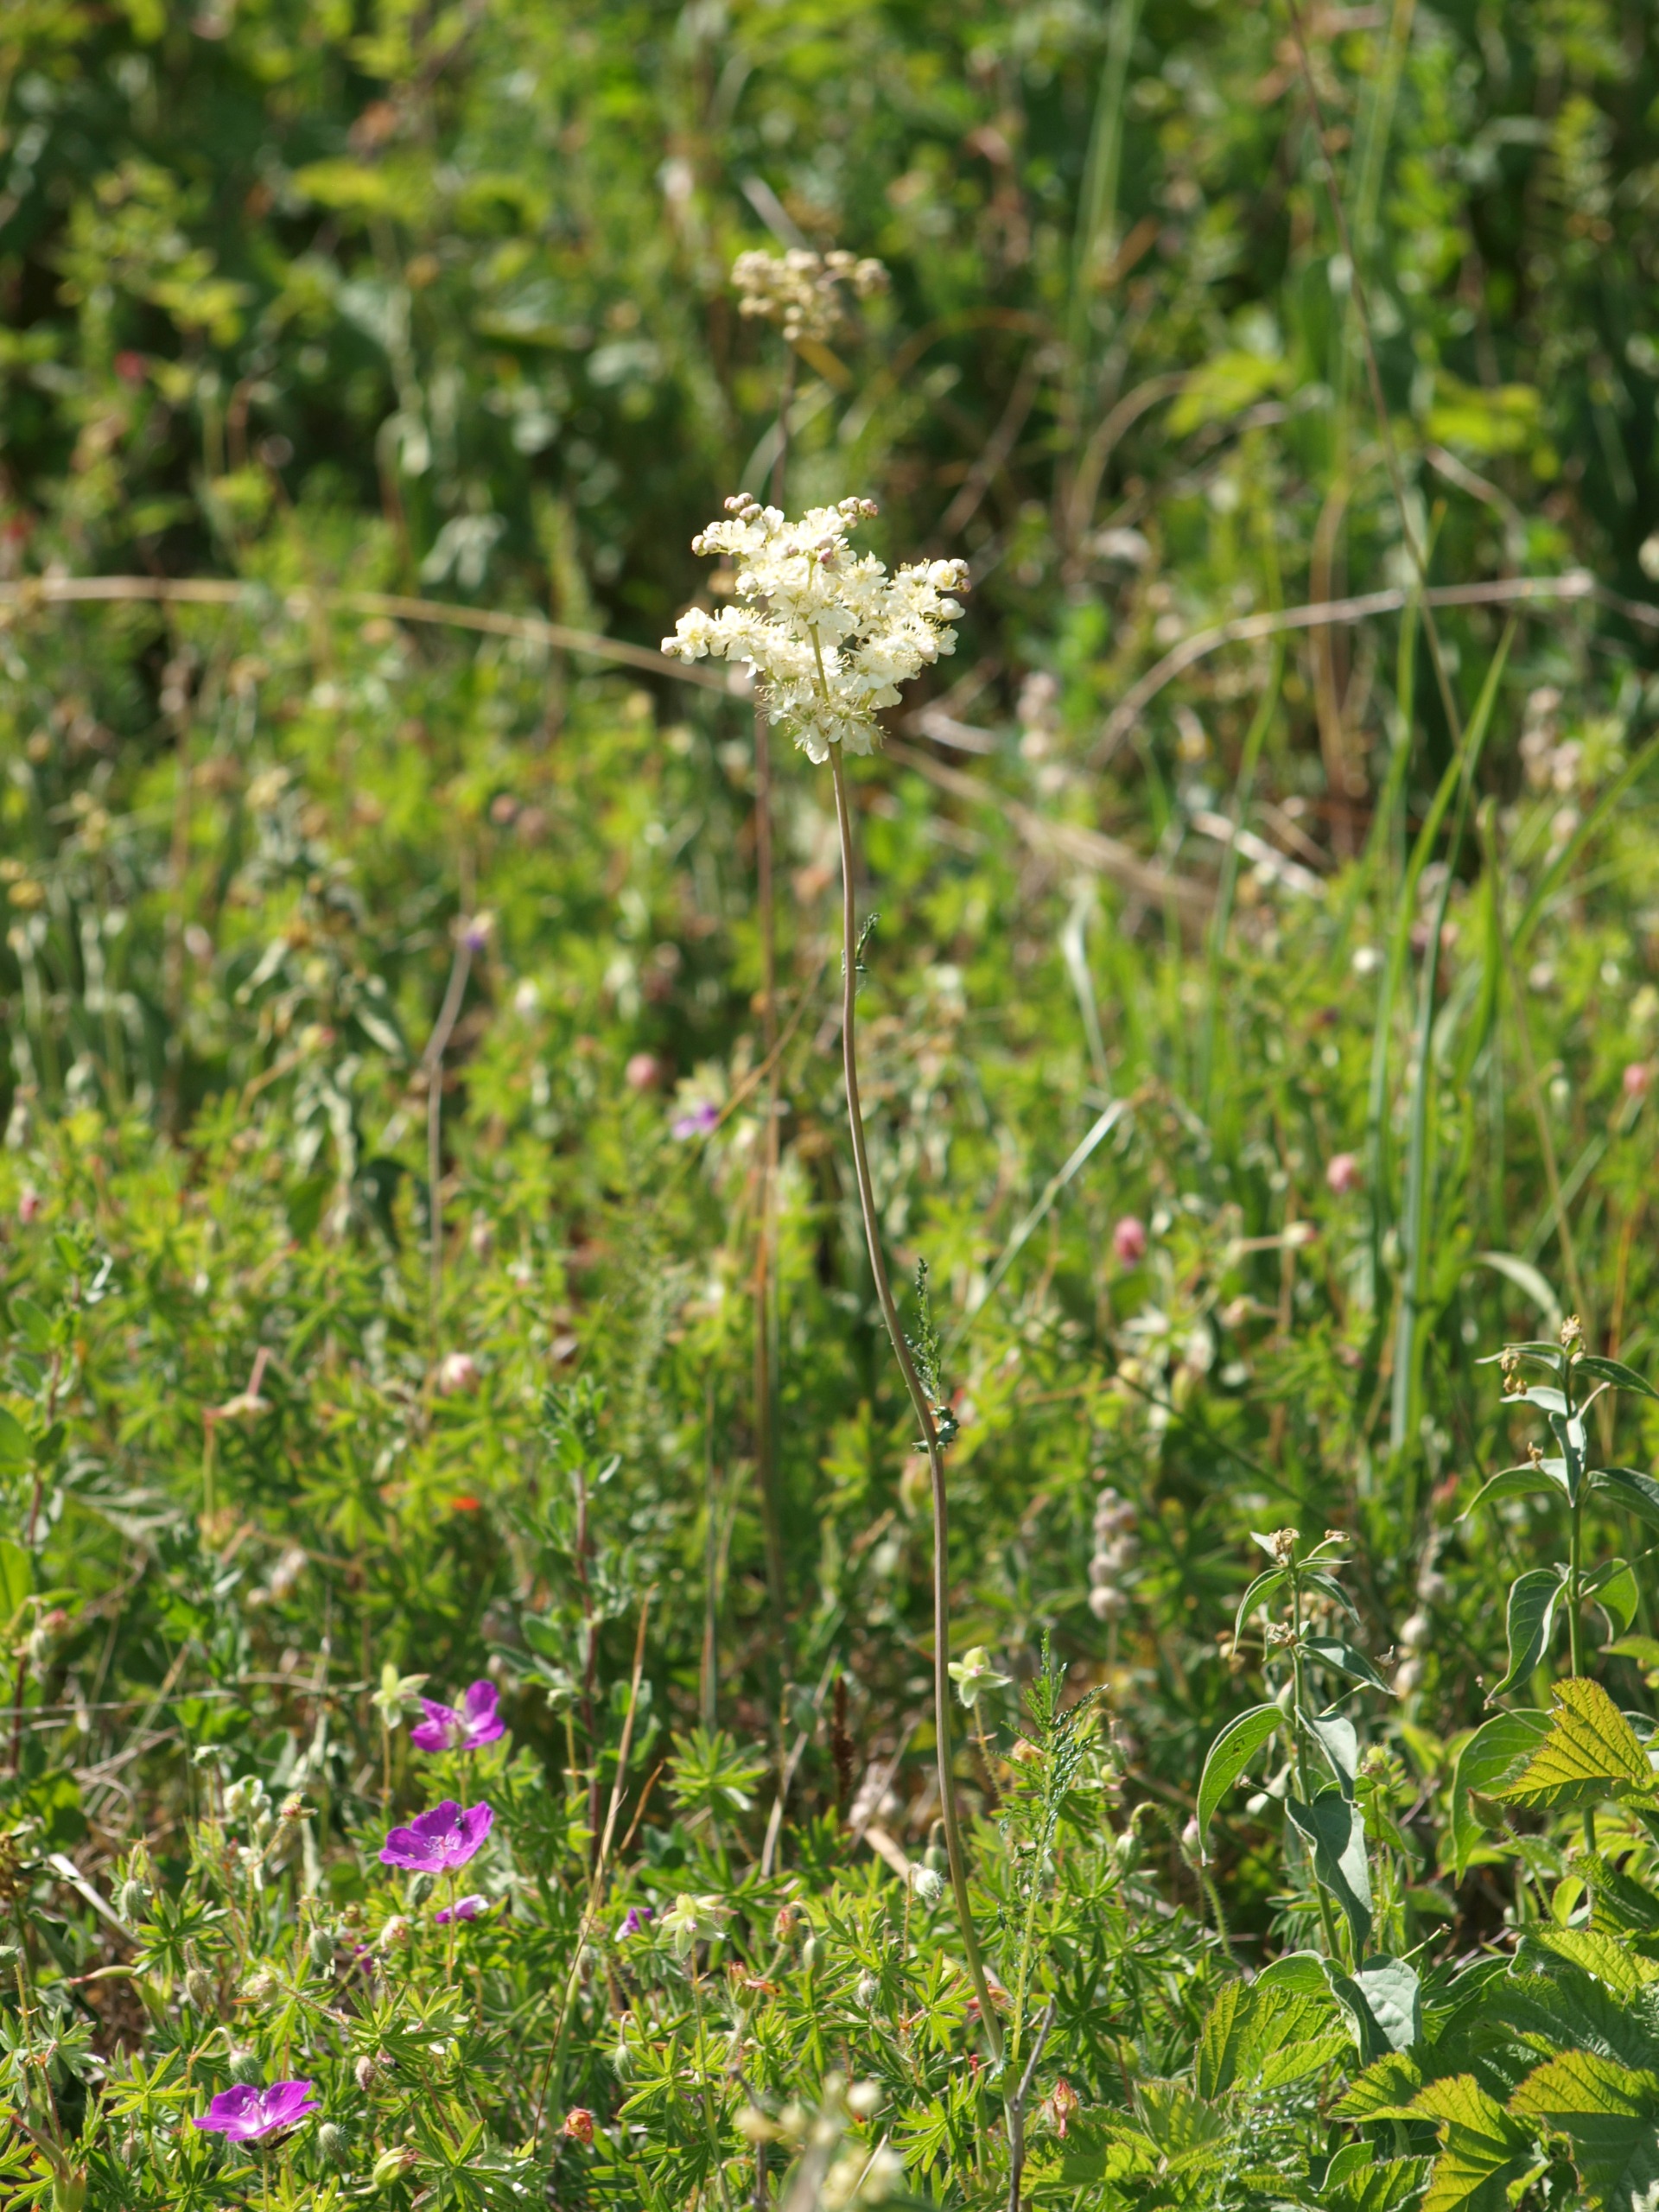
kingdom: Plantae
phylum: Tracheophyta
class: Magnoliopsida
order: Rosales
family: Rosaceae
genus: Filipendula
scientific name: Filipendula vulgaris
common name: Knoldet mjødurt
